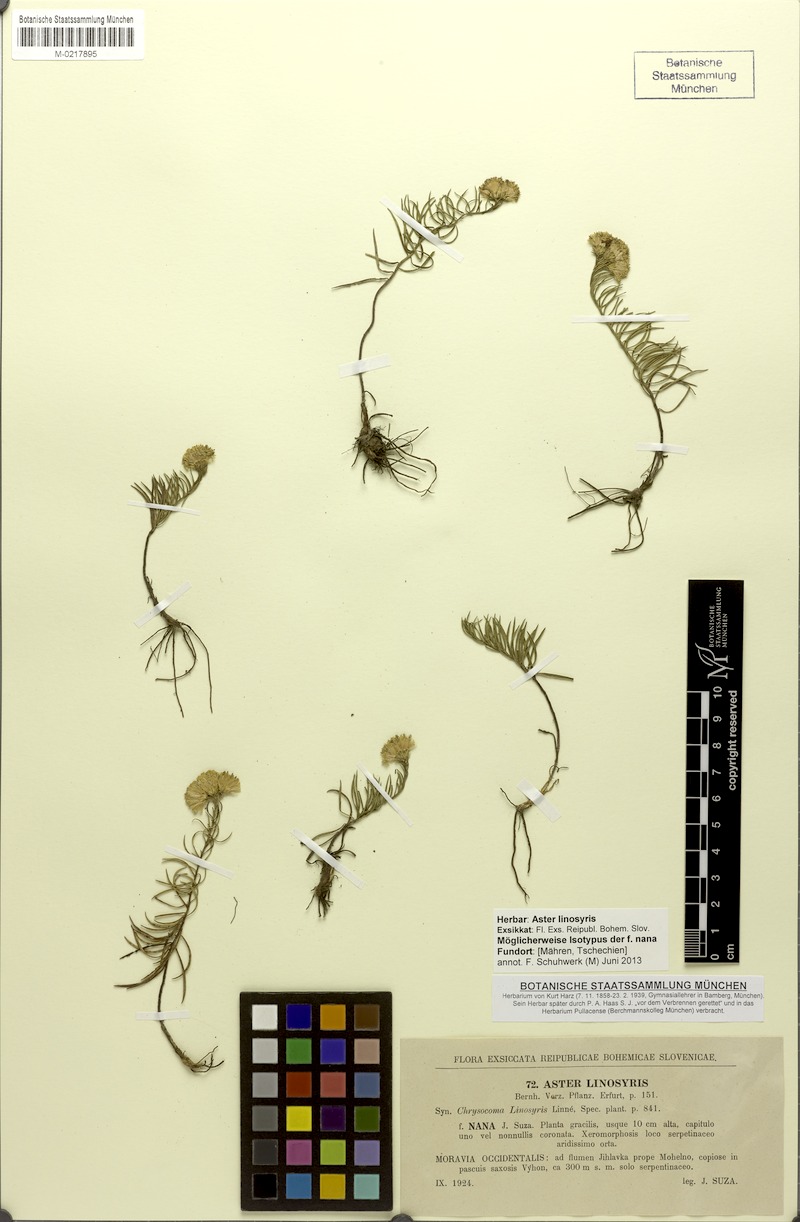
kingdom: Plantae
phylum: Tracheophyta
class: Magnoliopsida
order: Asterales
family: Asteraceae
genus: Galatella
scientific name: Galatella linosyris
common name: Goldilocks aster
